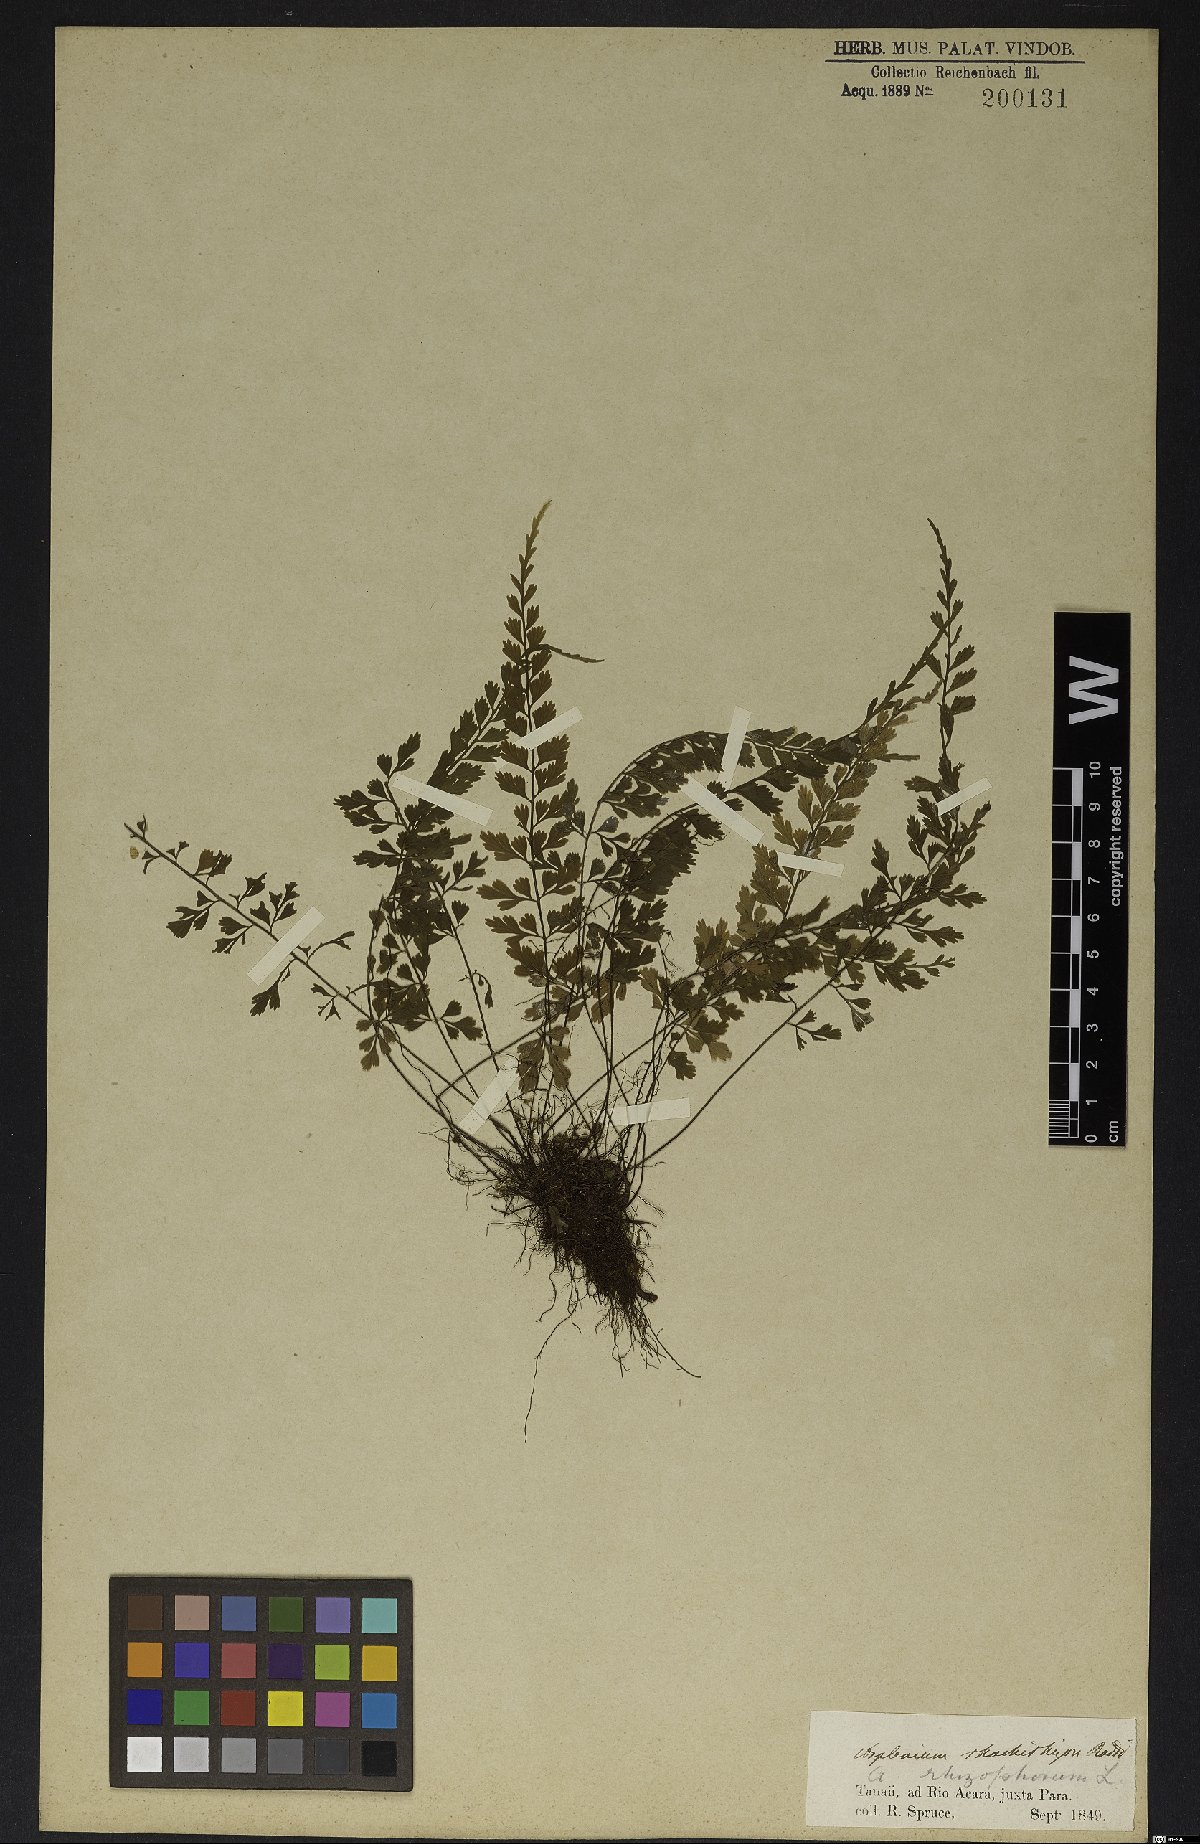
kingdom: Plantae
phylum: Tracheophyta
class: Polypodiopsida
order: Polypodiales
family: Aspleniaceae
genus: Asplenium
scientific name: Asplenium radicans
